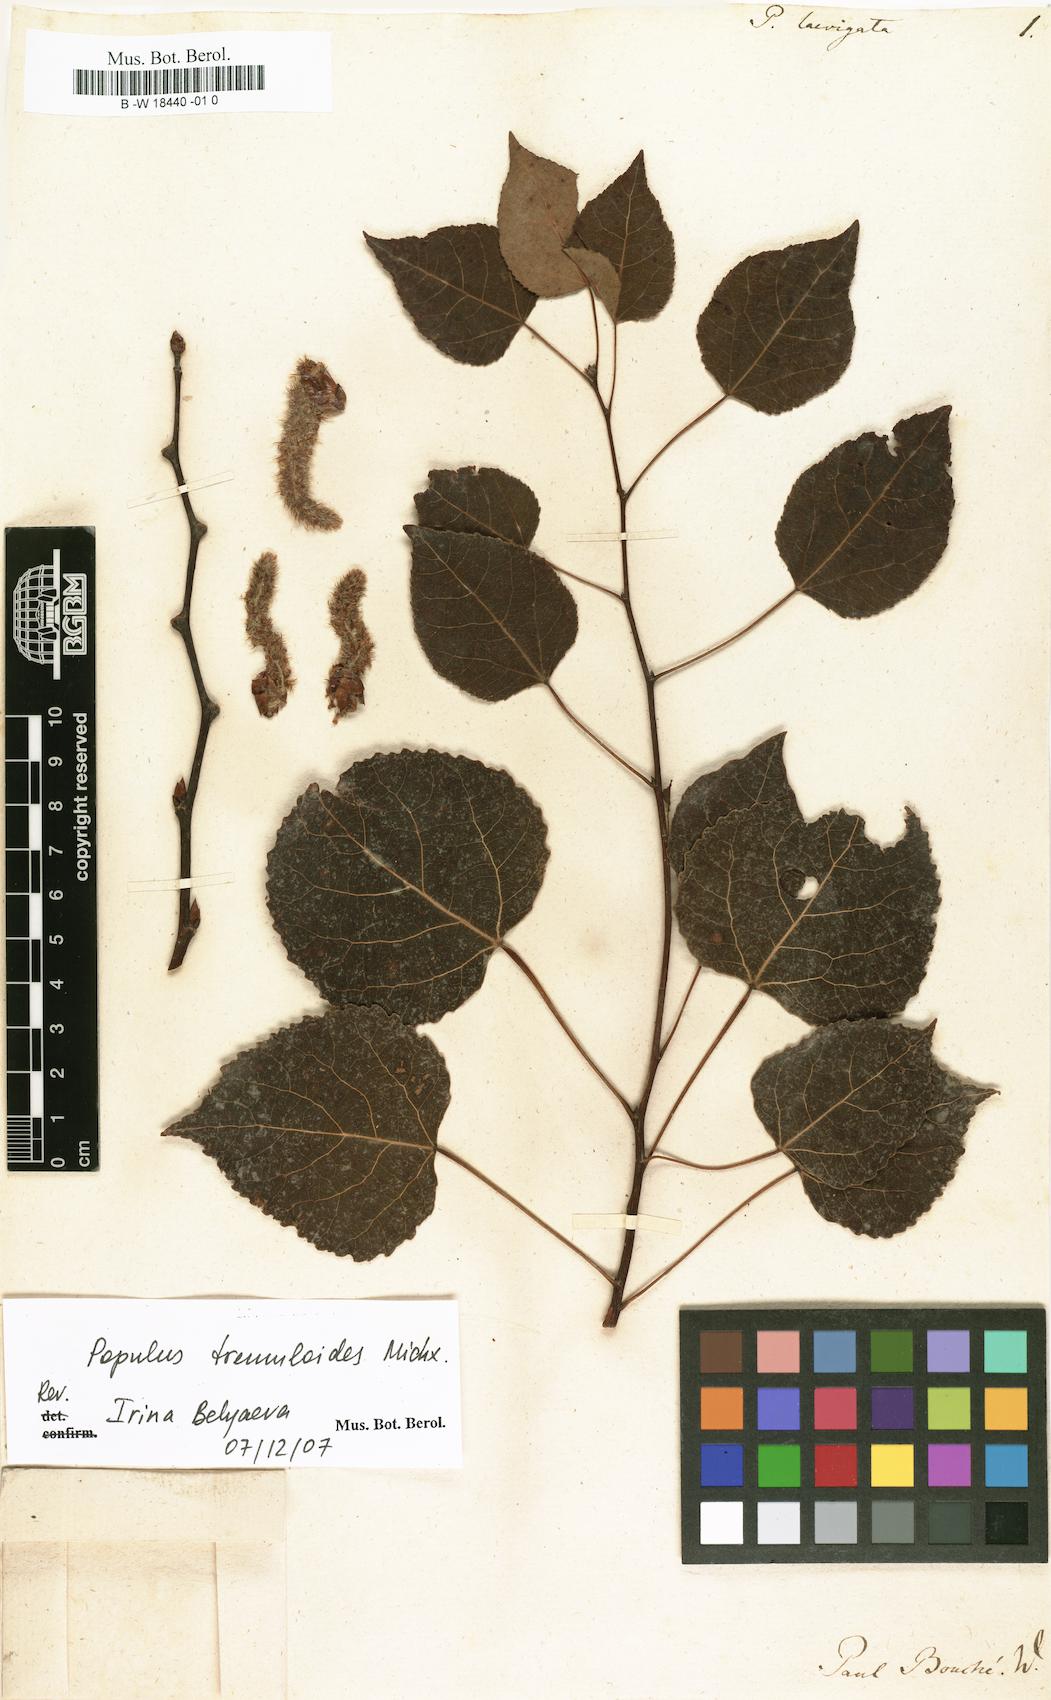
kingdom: Plantae
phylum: Tracheophyta
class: Magnoliopsida
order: Malpighiales
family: Salicaceae
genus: Populus
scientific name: Populus
